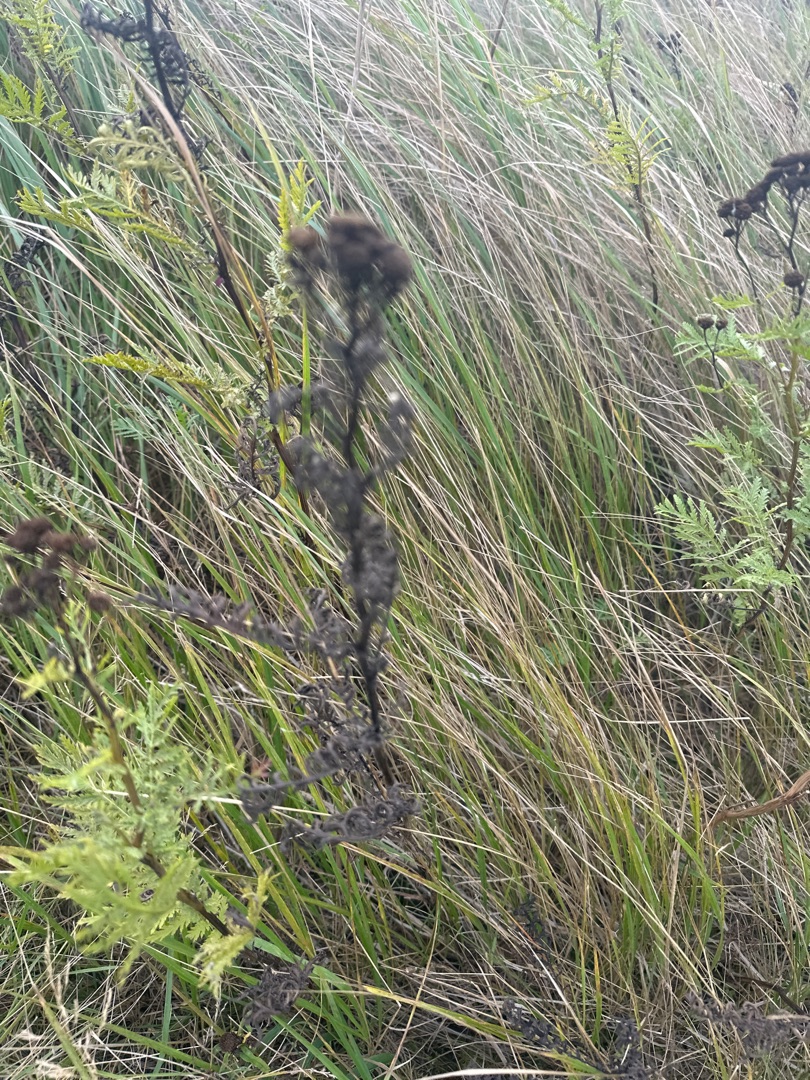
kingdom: Plantae
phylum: Tracheophyta
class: Magnoliopsida
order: Asterales
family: Asteraceae
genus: Tanacetum
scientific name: Tanacetum vulgare
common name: Rejnfan
